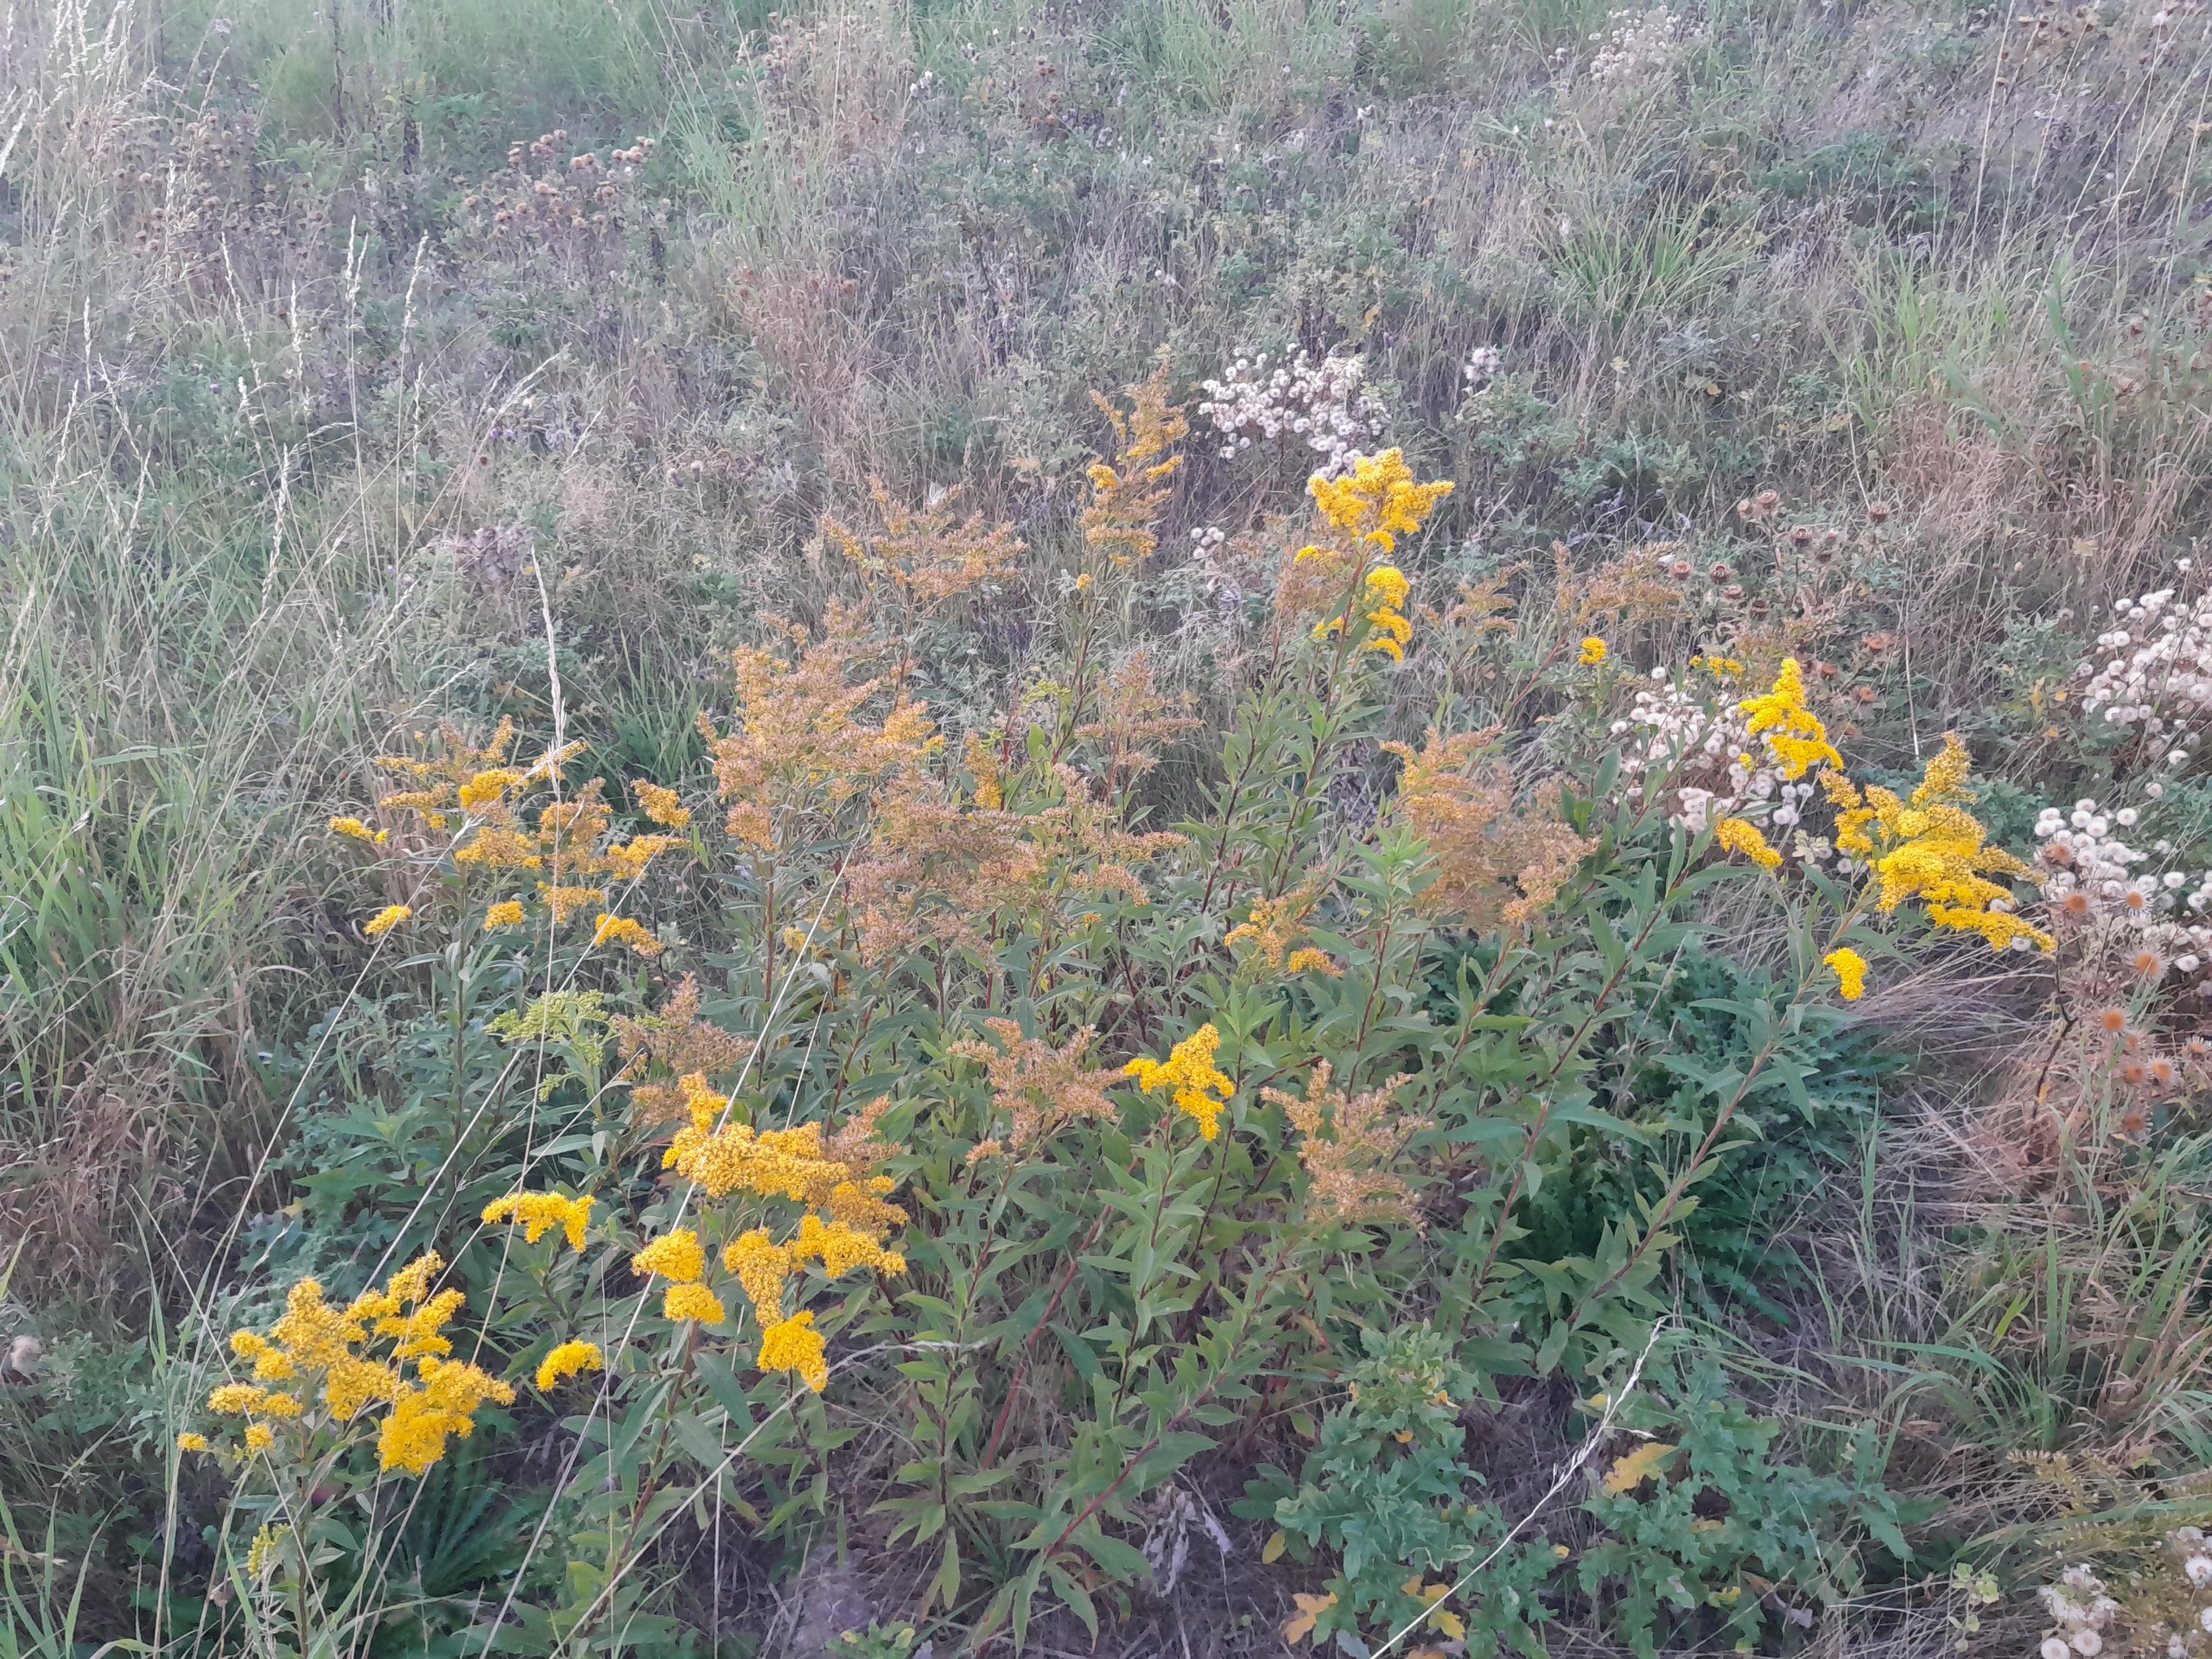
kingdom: Plantae
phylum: Tracheophyta
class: Magnoliopsida
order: Asterales
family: Asteraceae
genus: Solidago
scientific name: Solidago gigantea
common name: Sildig gyldenris
